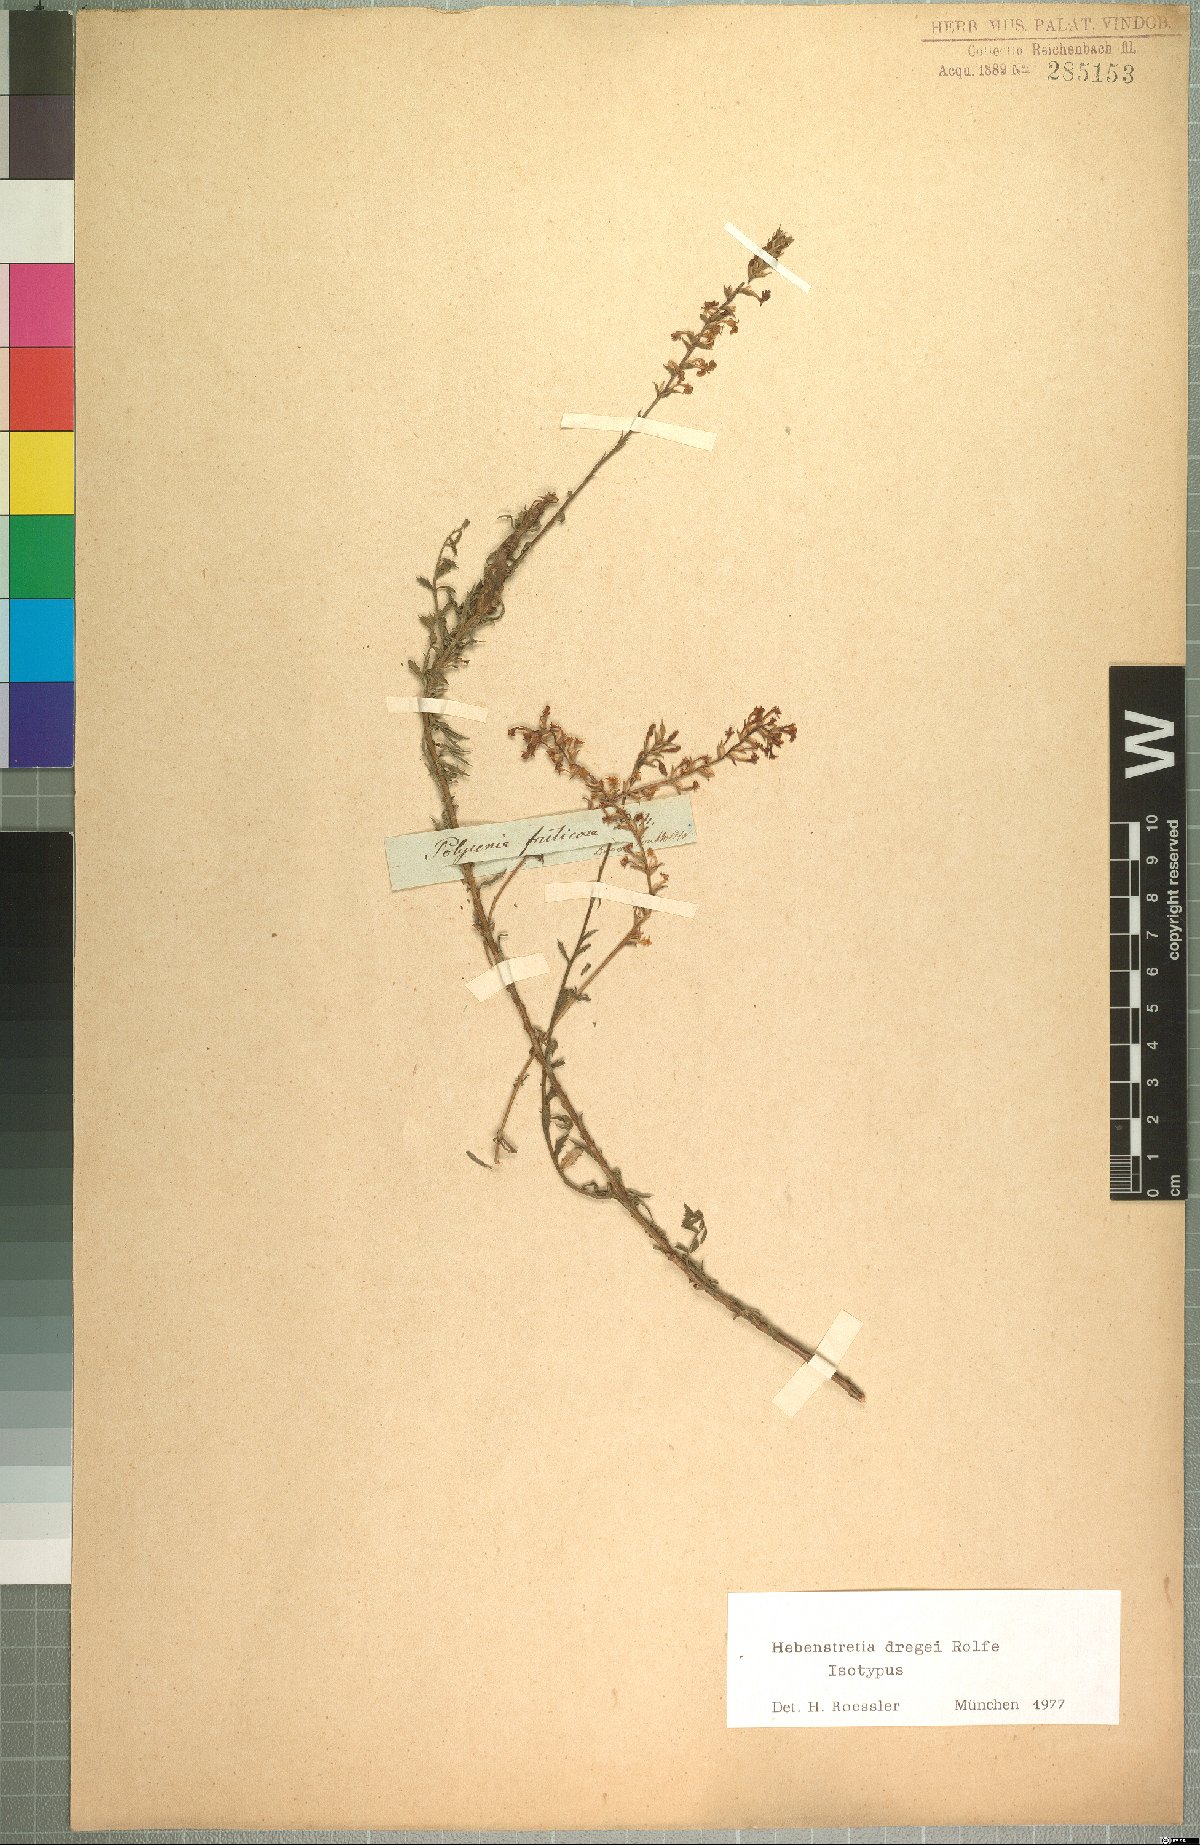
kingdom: Plantae
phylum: Tracheophyta
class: Magnoliopsida
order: Lamiales
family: Scrophulariaceae
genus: Hebenstretia
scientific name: Hebenstretia dregei
